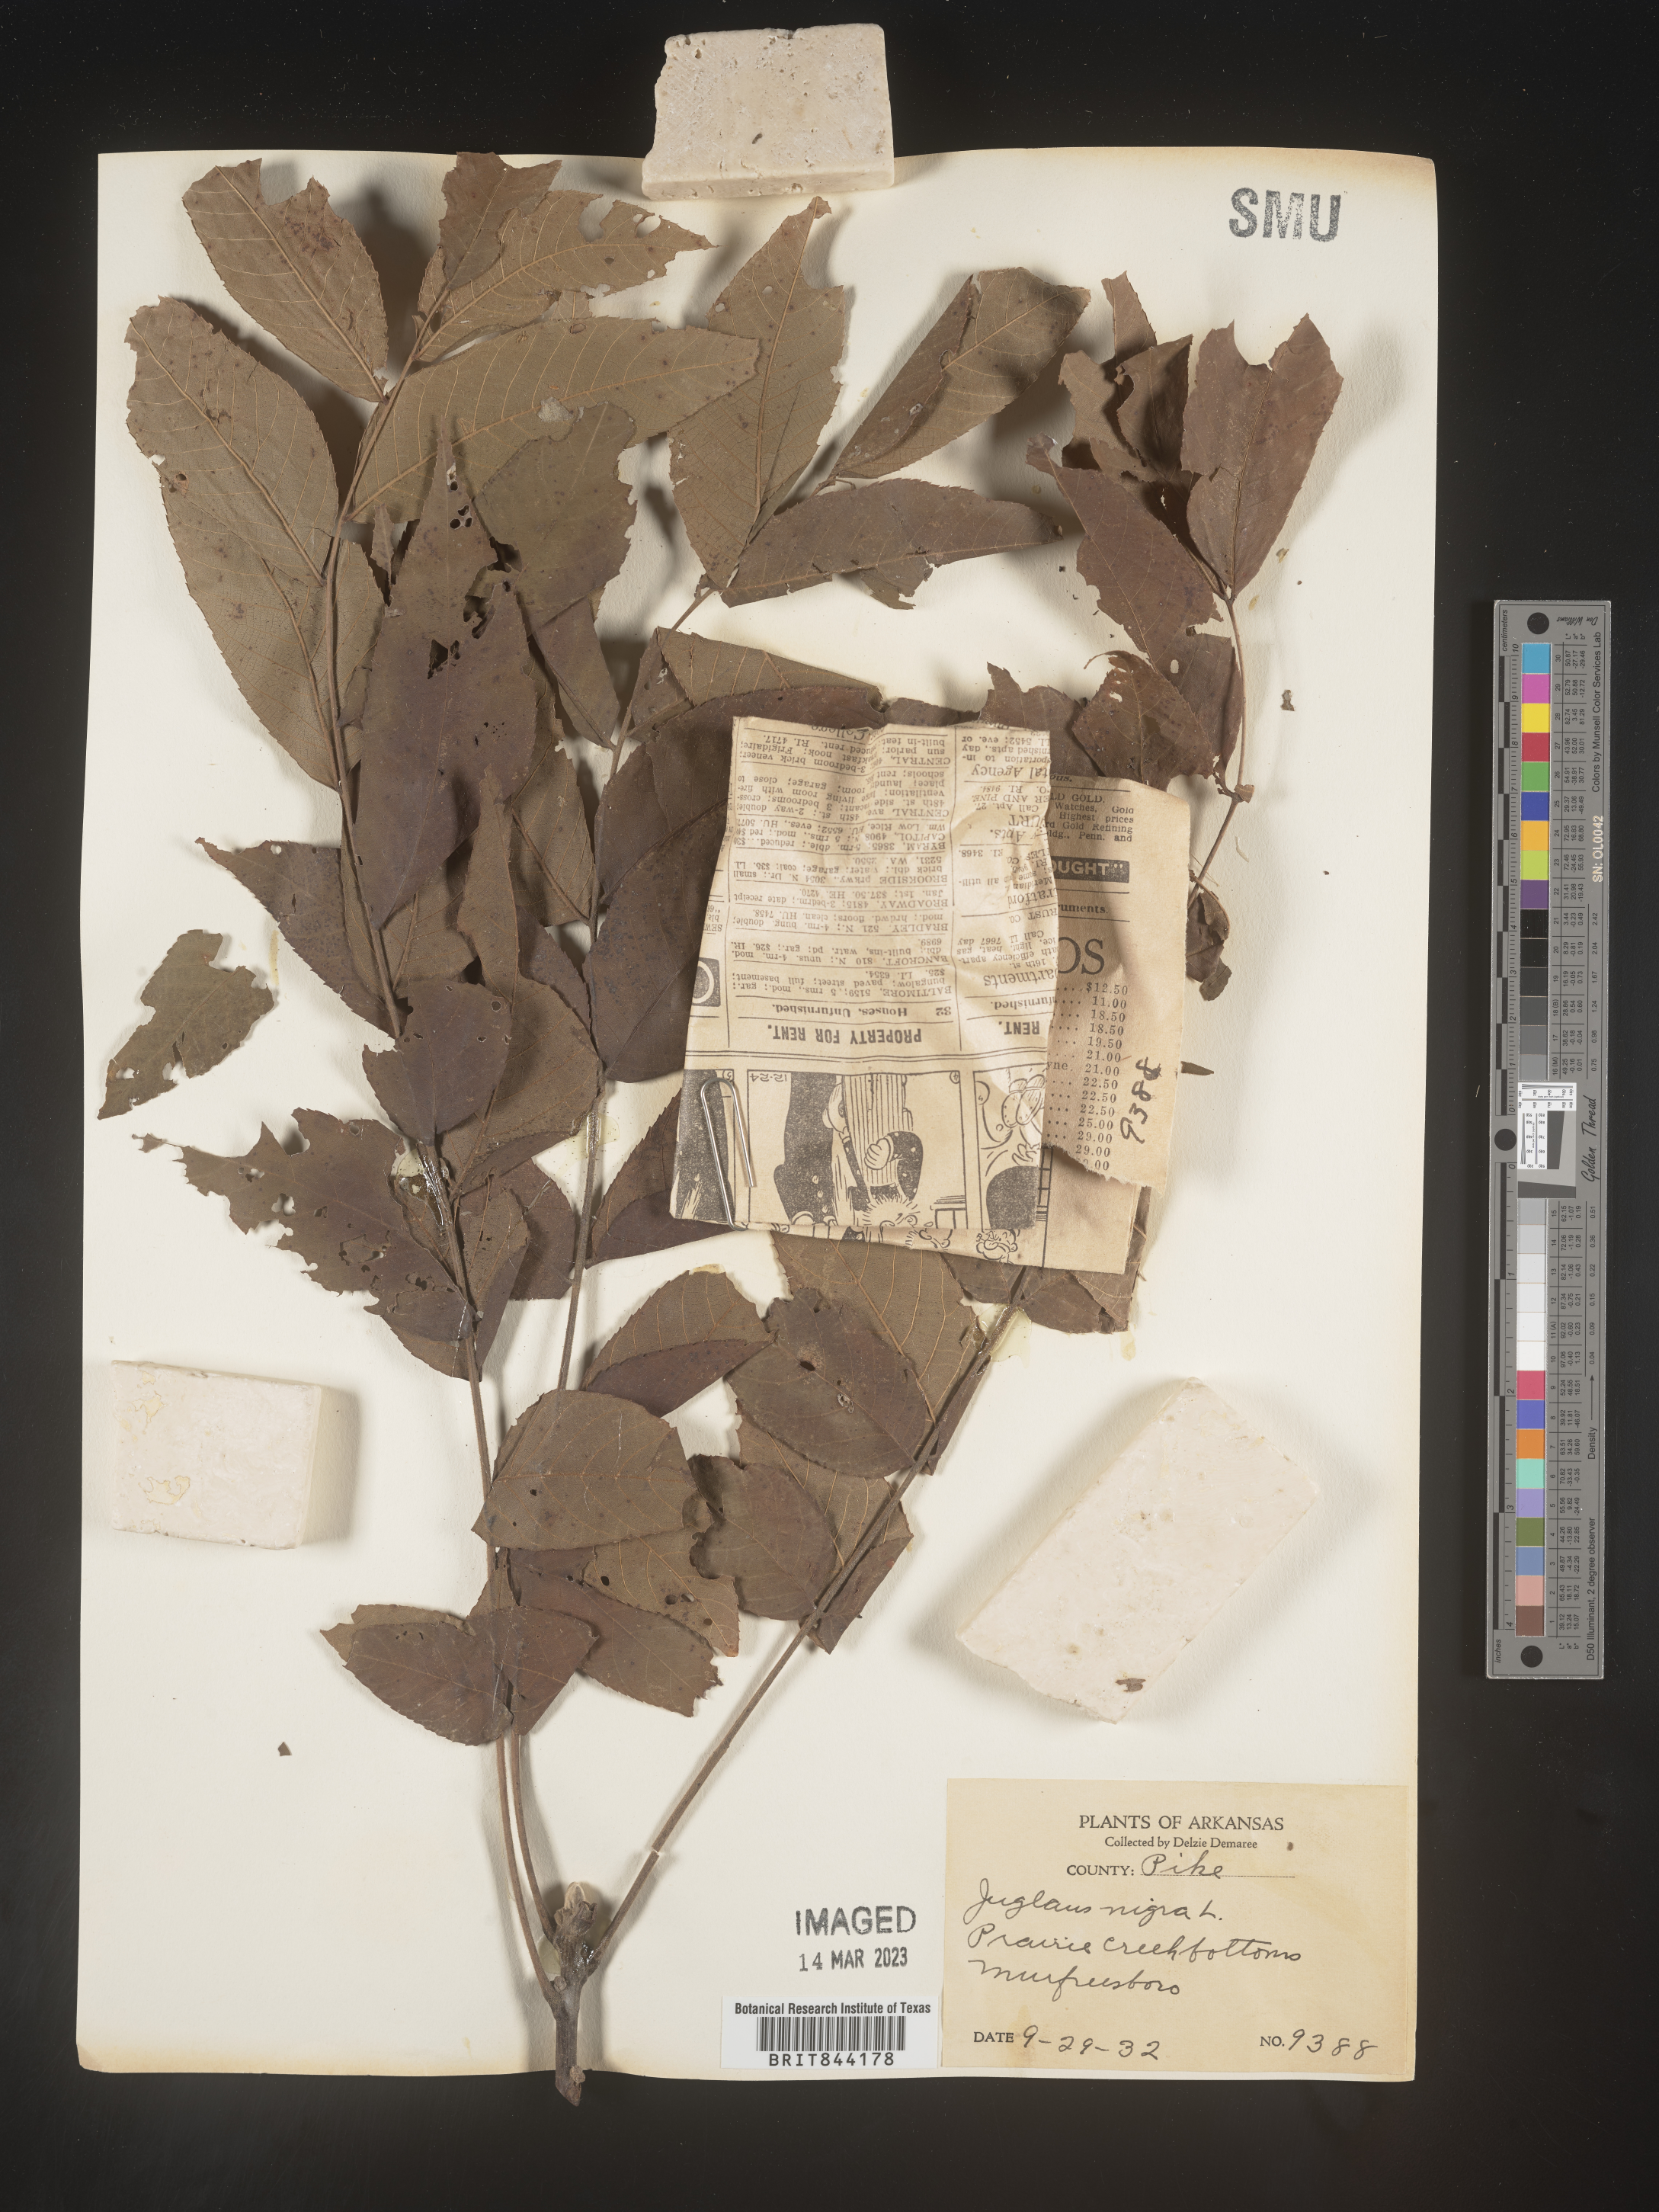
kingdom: Plantae
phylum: Tracheophyta
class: Magnoliopsida
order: Fagales
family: Juglandaceae
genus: Juglans
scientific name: Juglans nigra
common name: Black walnut
